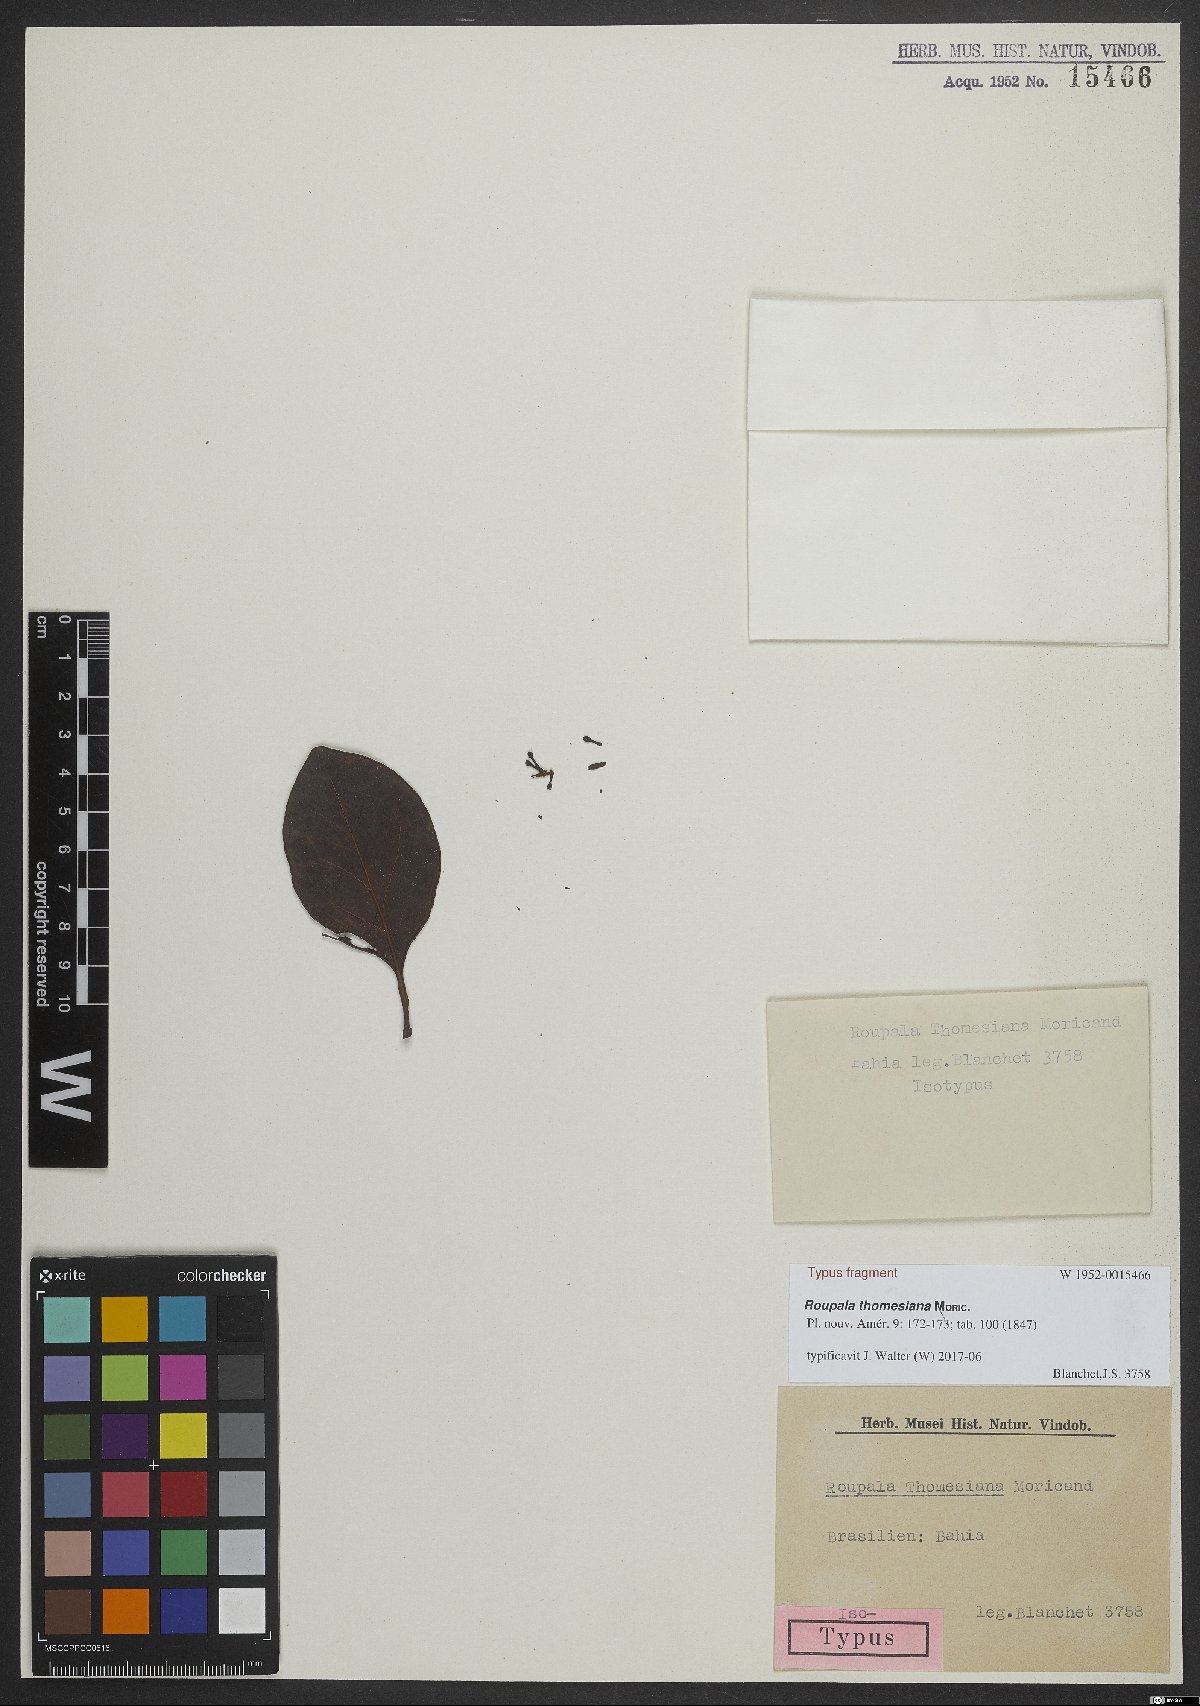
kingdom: Plantae
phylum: Tracheophyta
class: Magnoliopsida
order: Proteales
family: Proteaceae
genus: Roupala
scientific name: Roupala thomesiana
